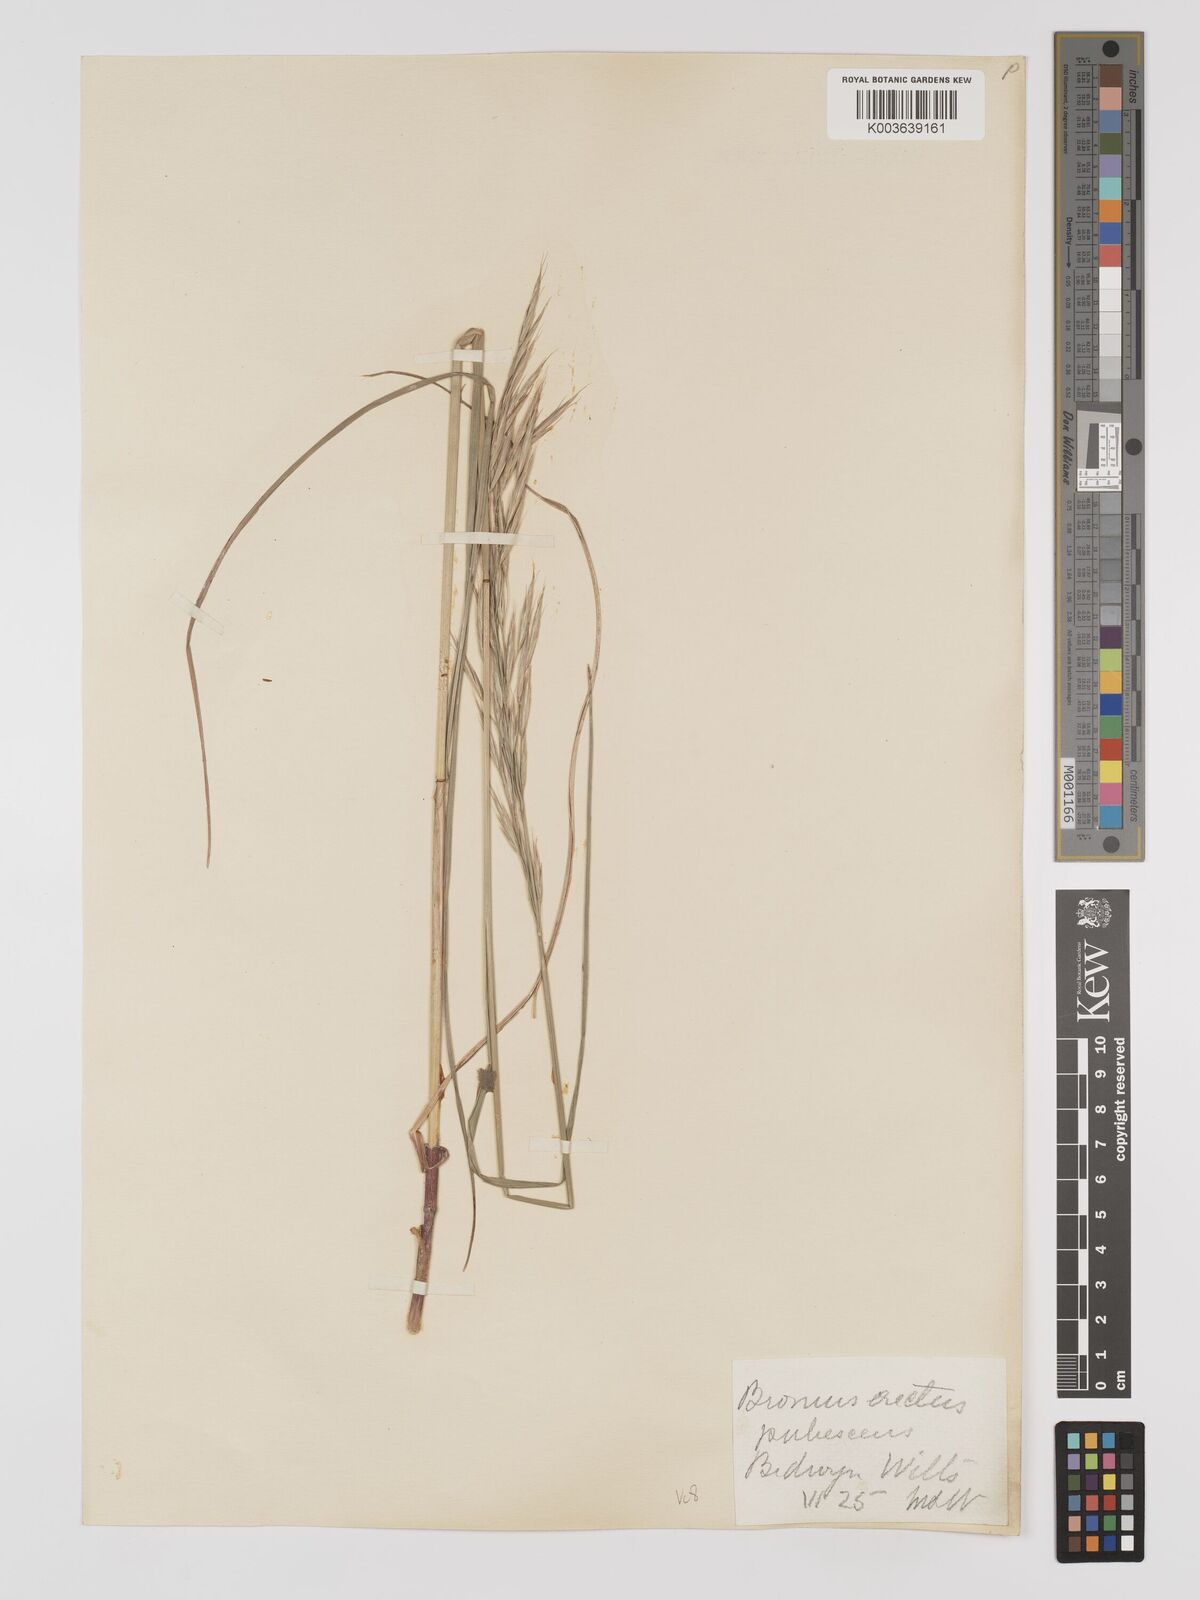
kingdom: Plantae
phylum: Tracheophyta
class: Liliopsida
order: Poales
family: Poaceae
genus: Bromus
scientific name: Bromus erectus
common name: Erect brome
